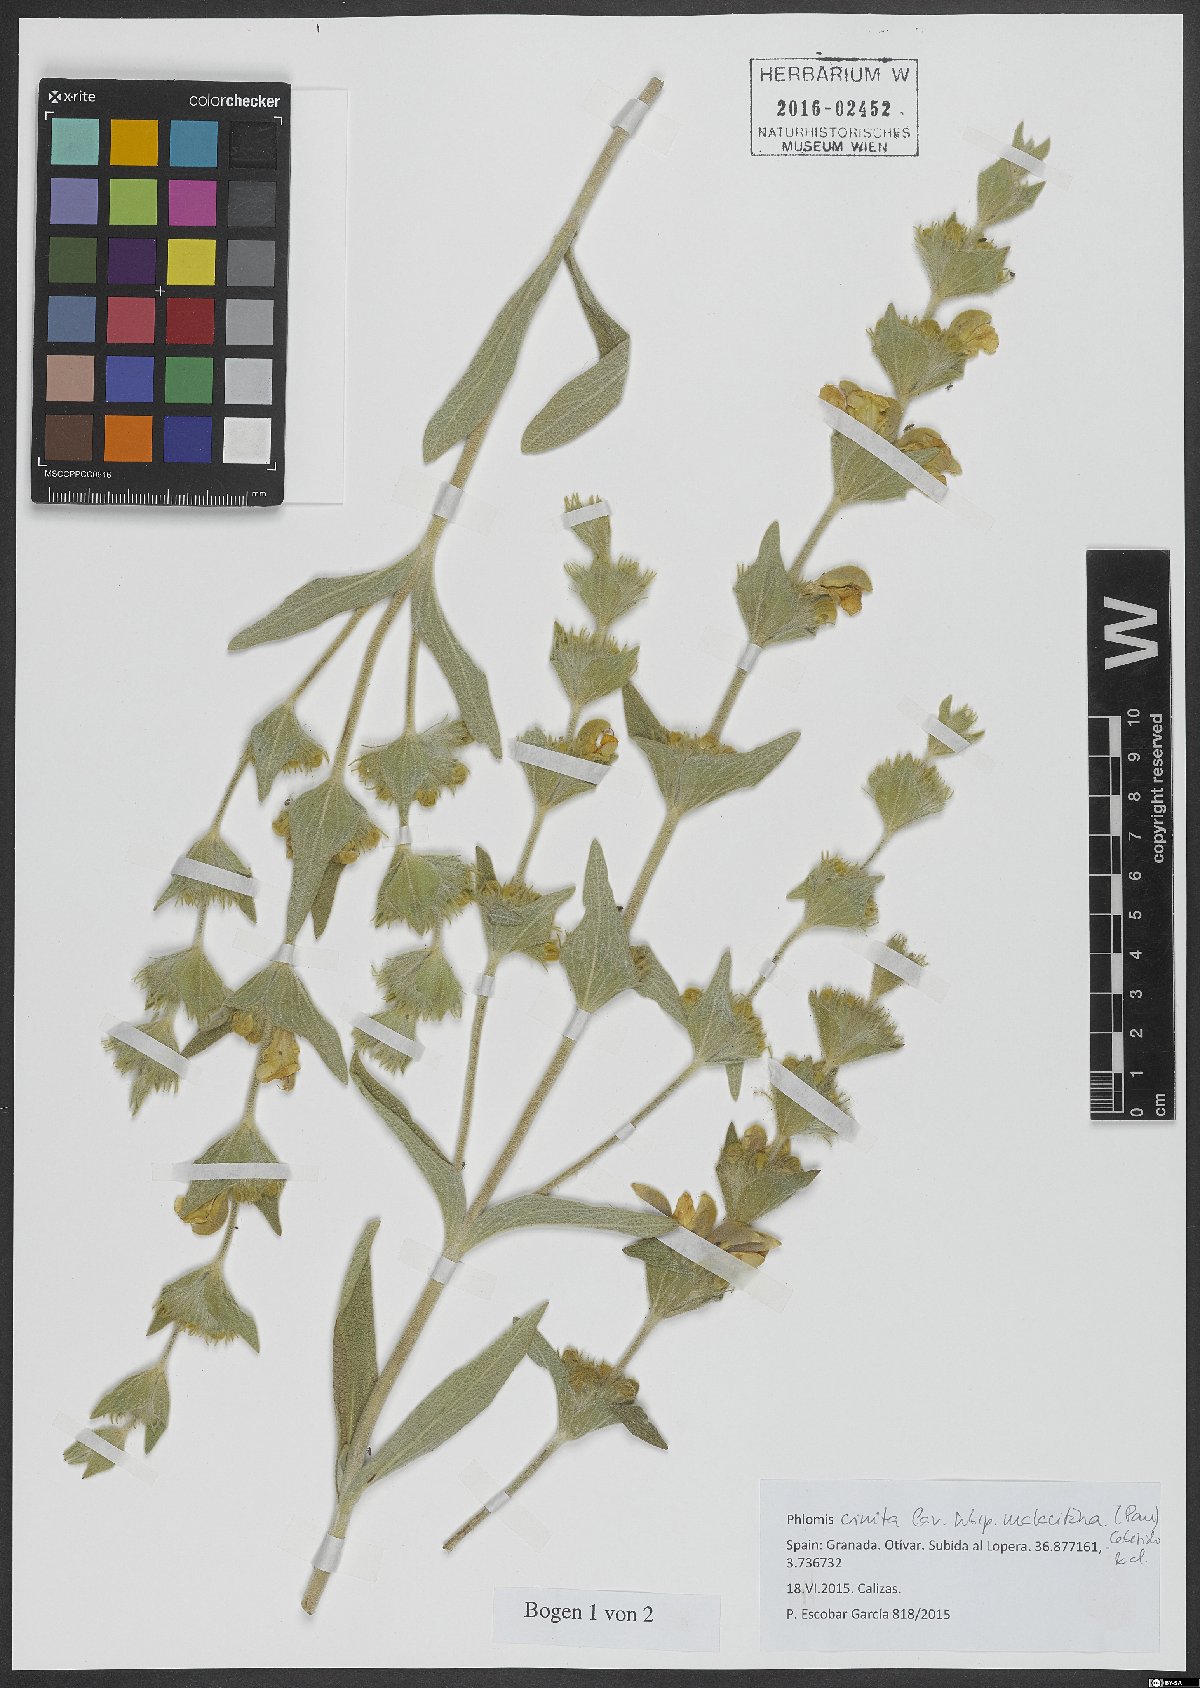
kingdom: Plantae
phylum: Tracheophyta
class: Magnoliopsida
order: Lamiales
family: Lamiaceae
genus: Phlomis
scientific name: Phlomis crinita
